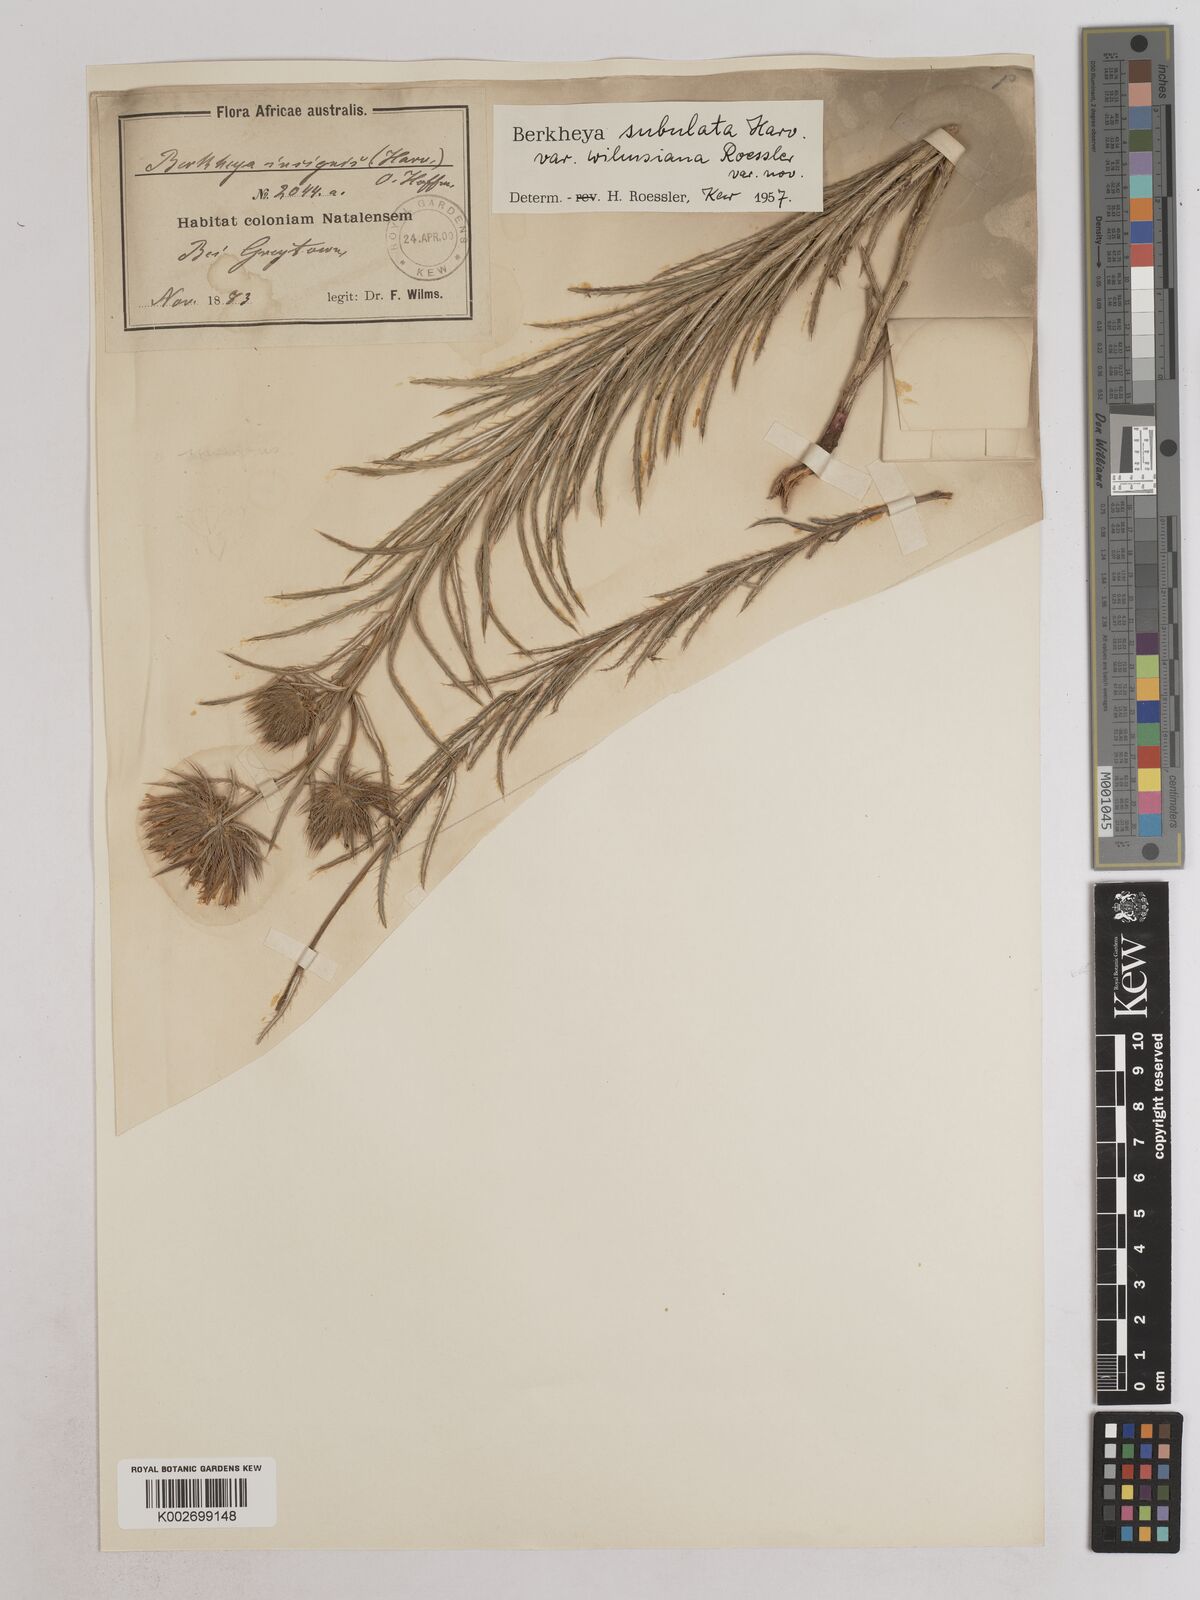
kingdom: Plantae
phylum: Tracheophyta
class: Magnoliopsida
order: Asterales
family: Asteraceae
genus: Berkheya
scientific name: Berkheya subulata
